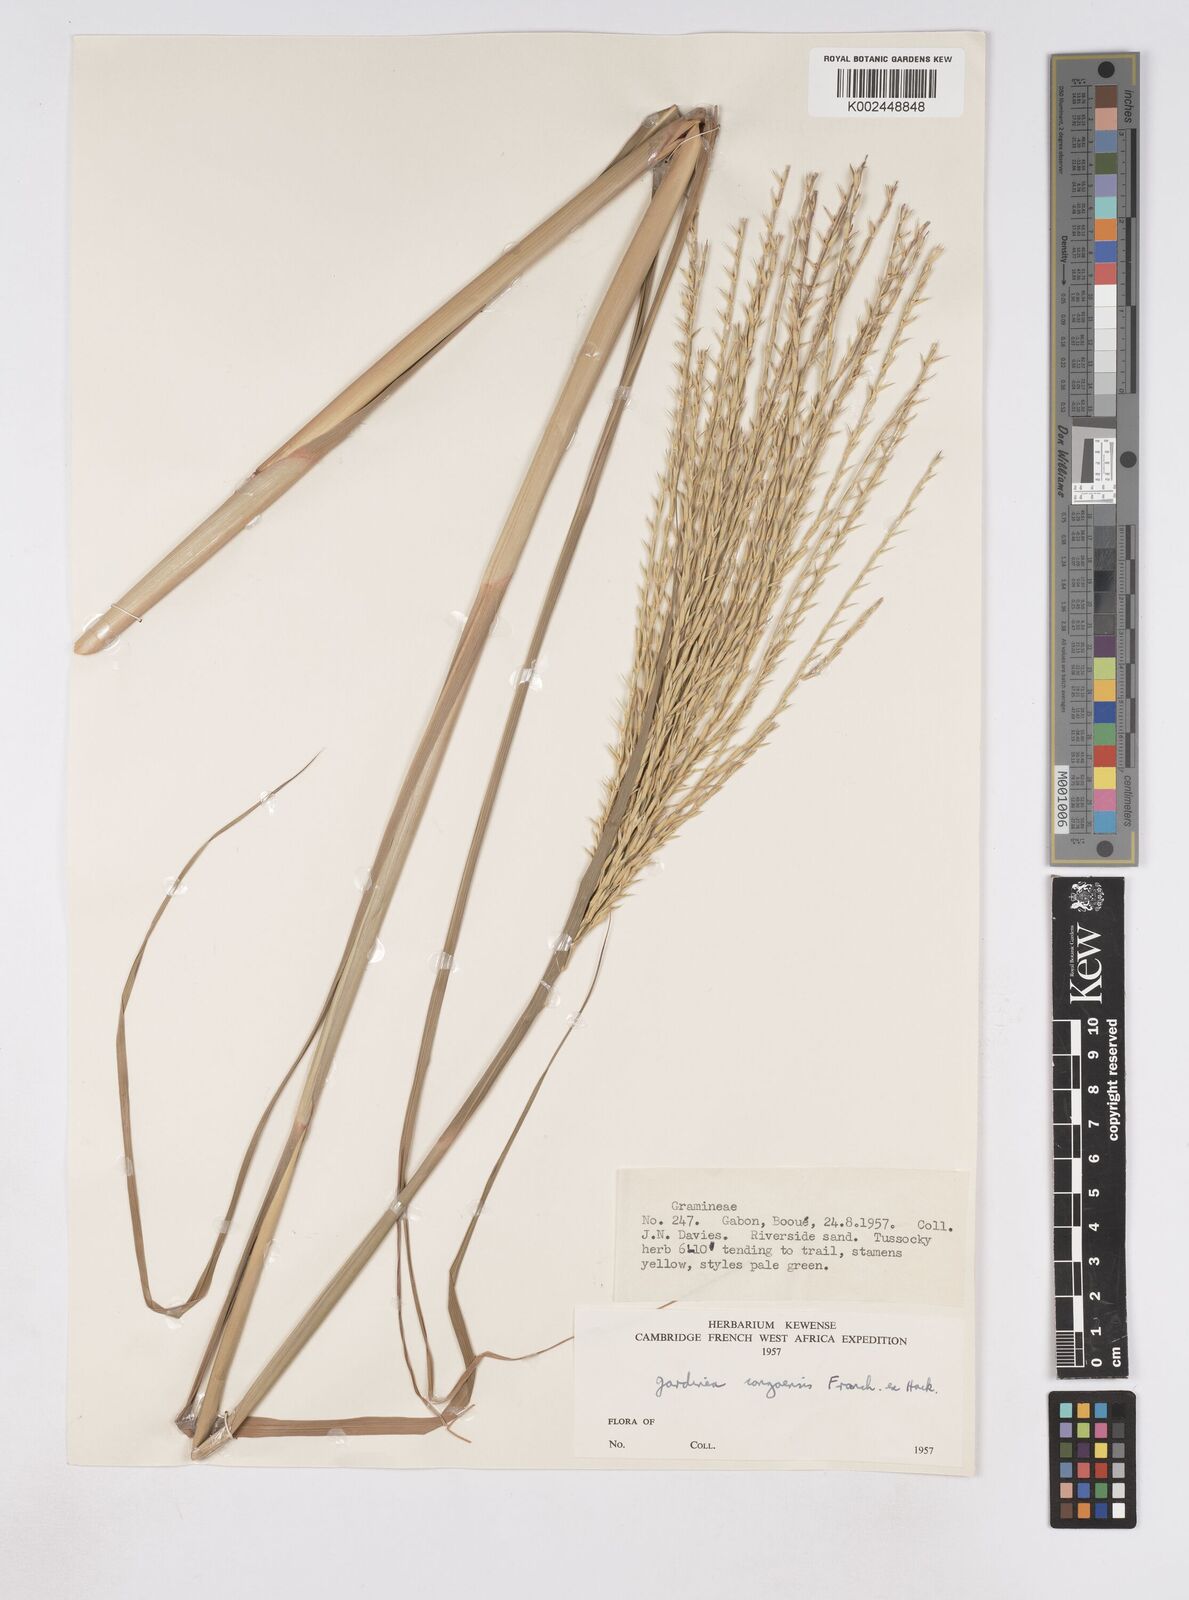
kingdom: Plantae
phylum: Tracheophyta
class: Liliopsida
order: Poales
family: Poaceae
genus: Phacelurus
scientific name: Phacelurus gabonensis
